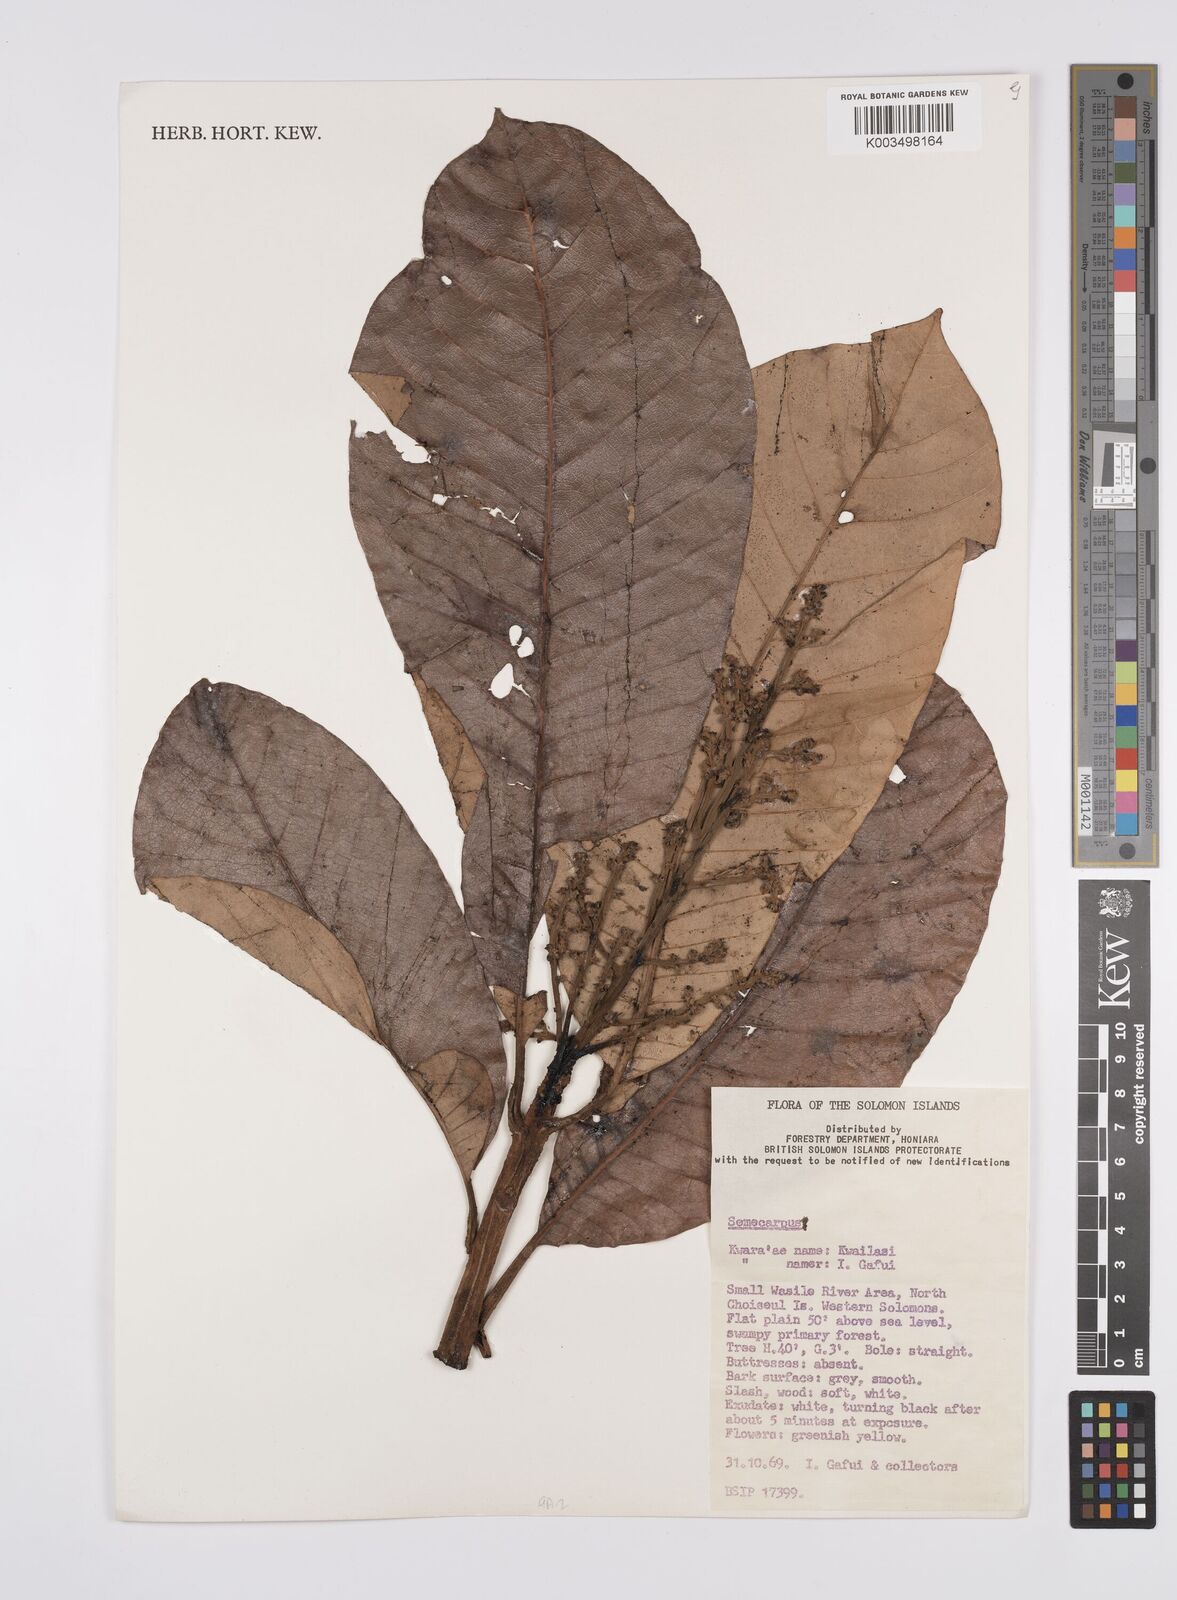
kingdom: Plantae
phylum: Tracheophyta
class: Magnoliopsida
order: Sapindales
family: Anacardiaceae
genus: Semecarpus
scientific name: Semecarpus
